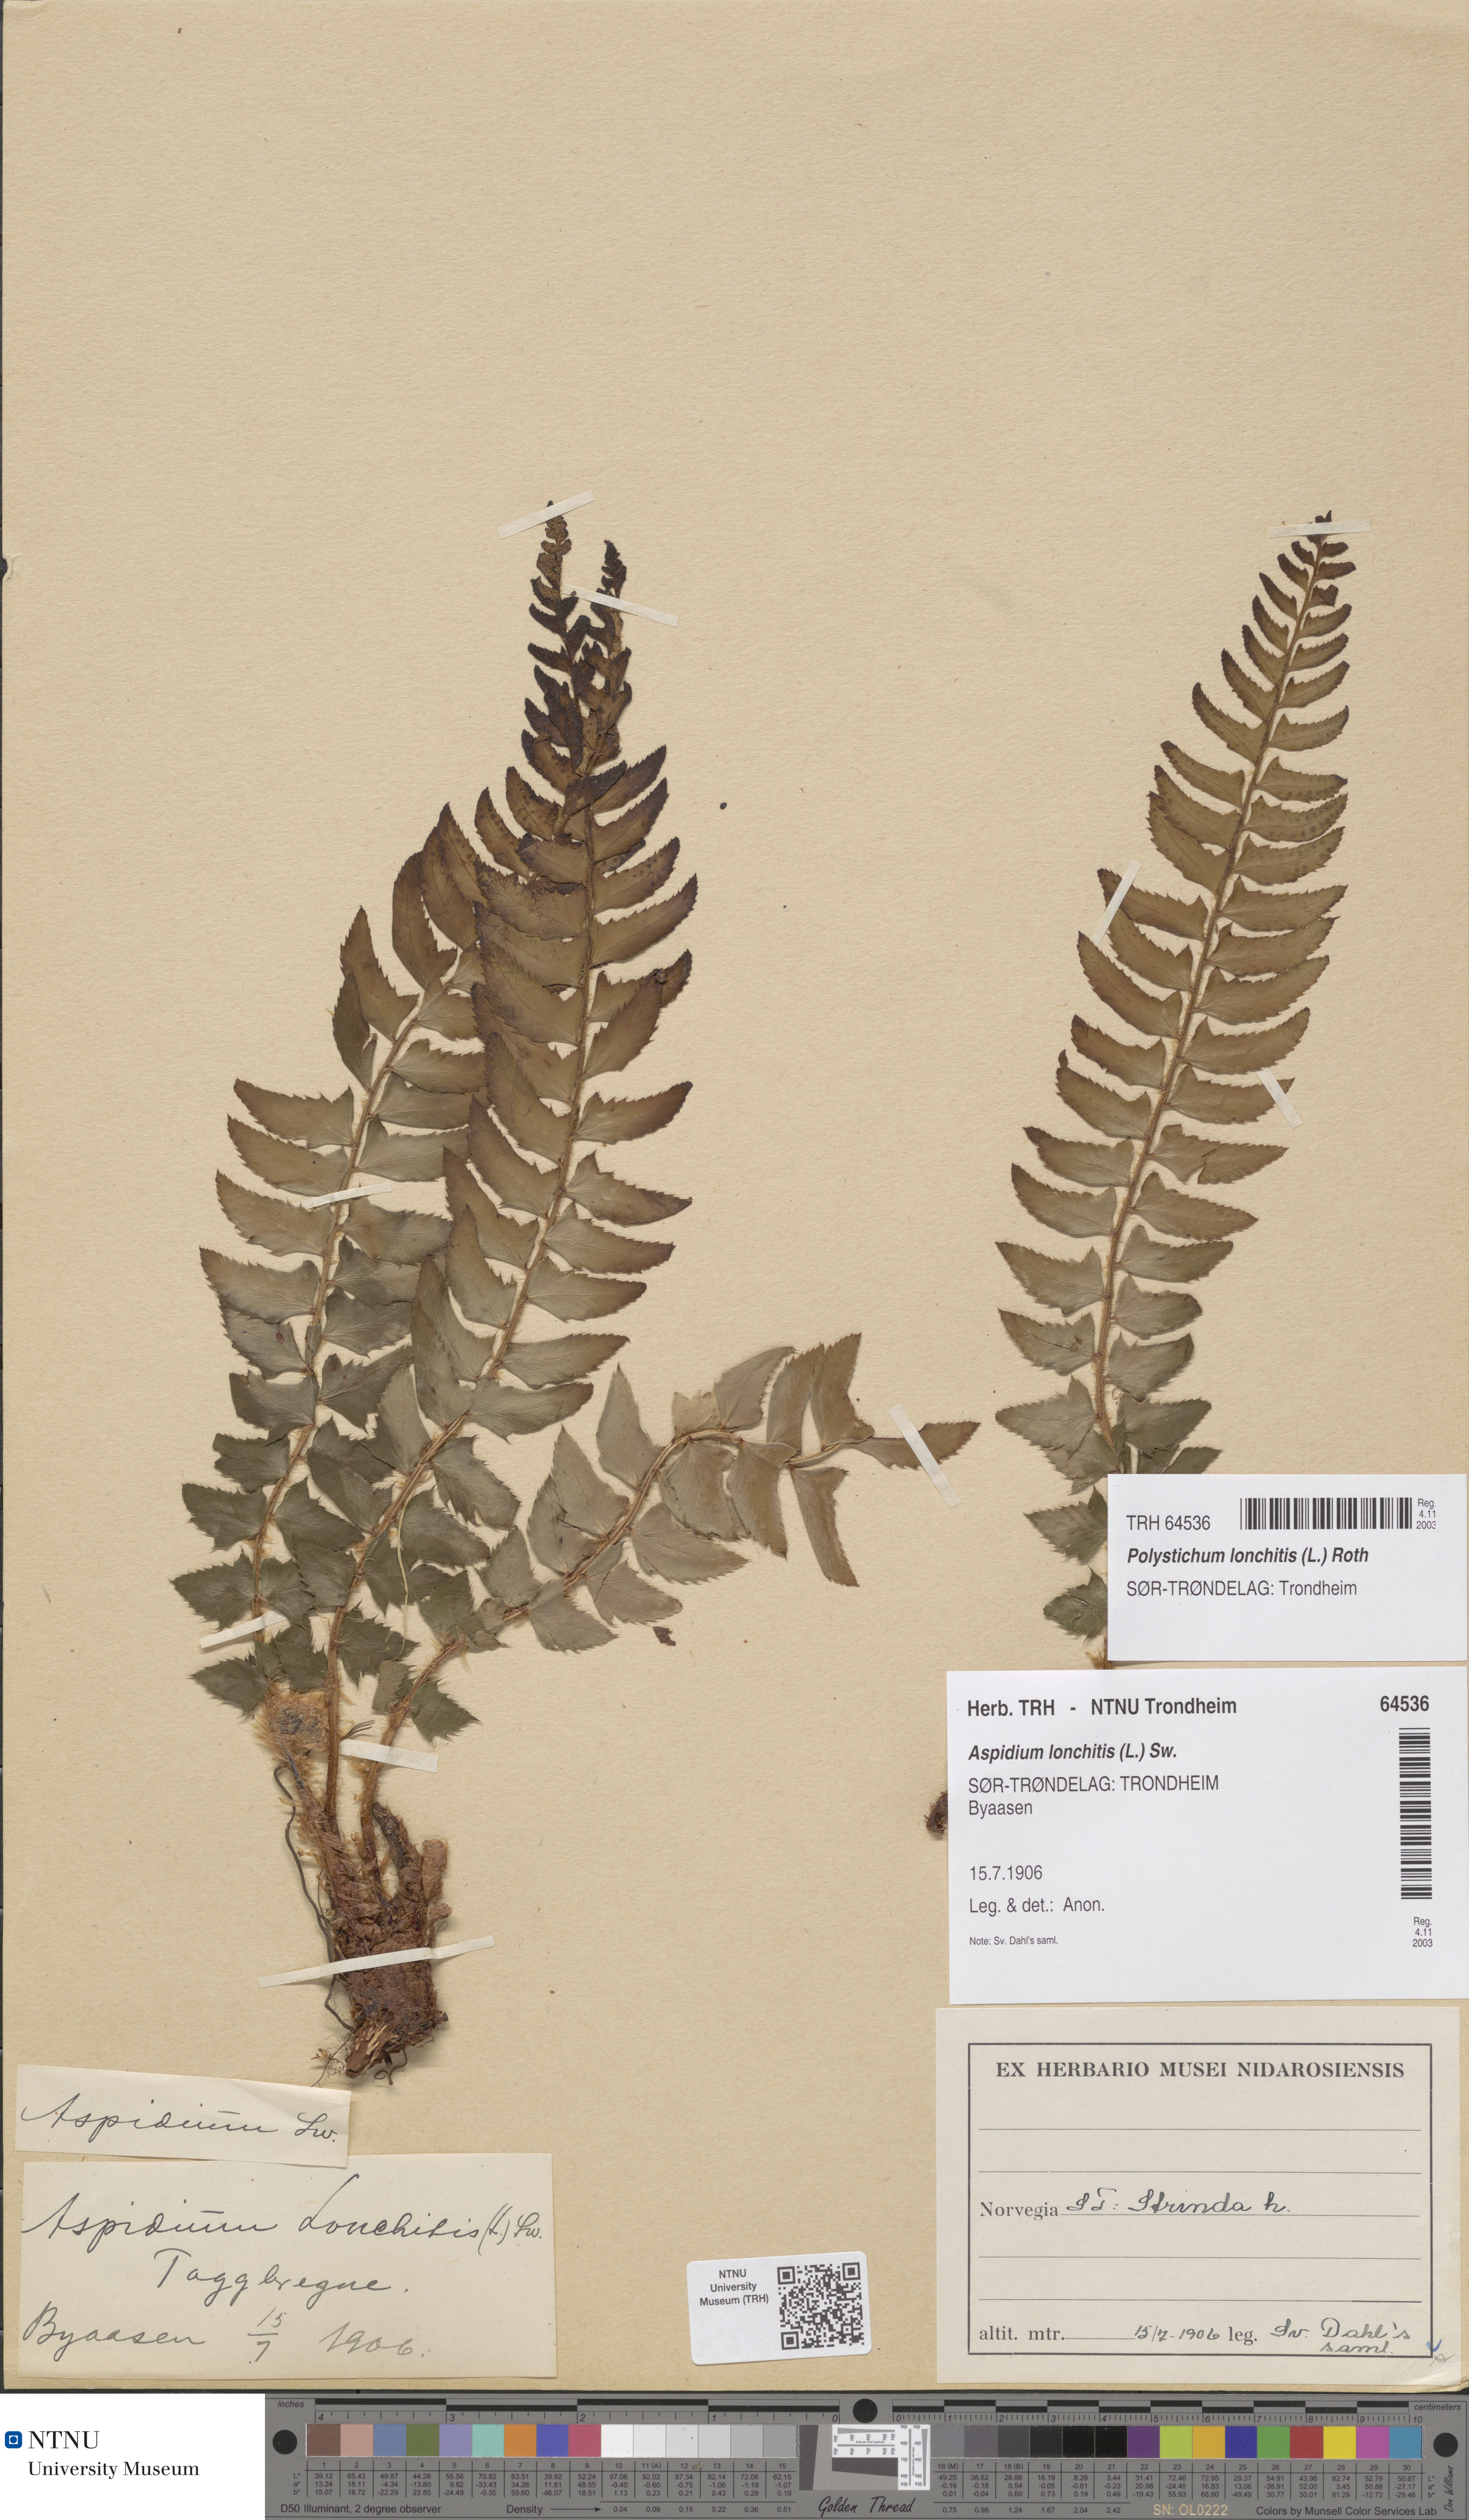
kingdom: Plantae
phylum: Tracheophyta
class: Polypodiopsida
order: Polypodiales
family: Dryopteridaceae
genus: Polystichum
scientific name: Polystichum lonchitis
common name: Holly fern
